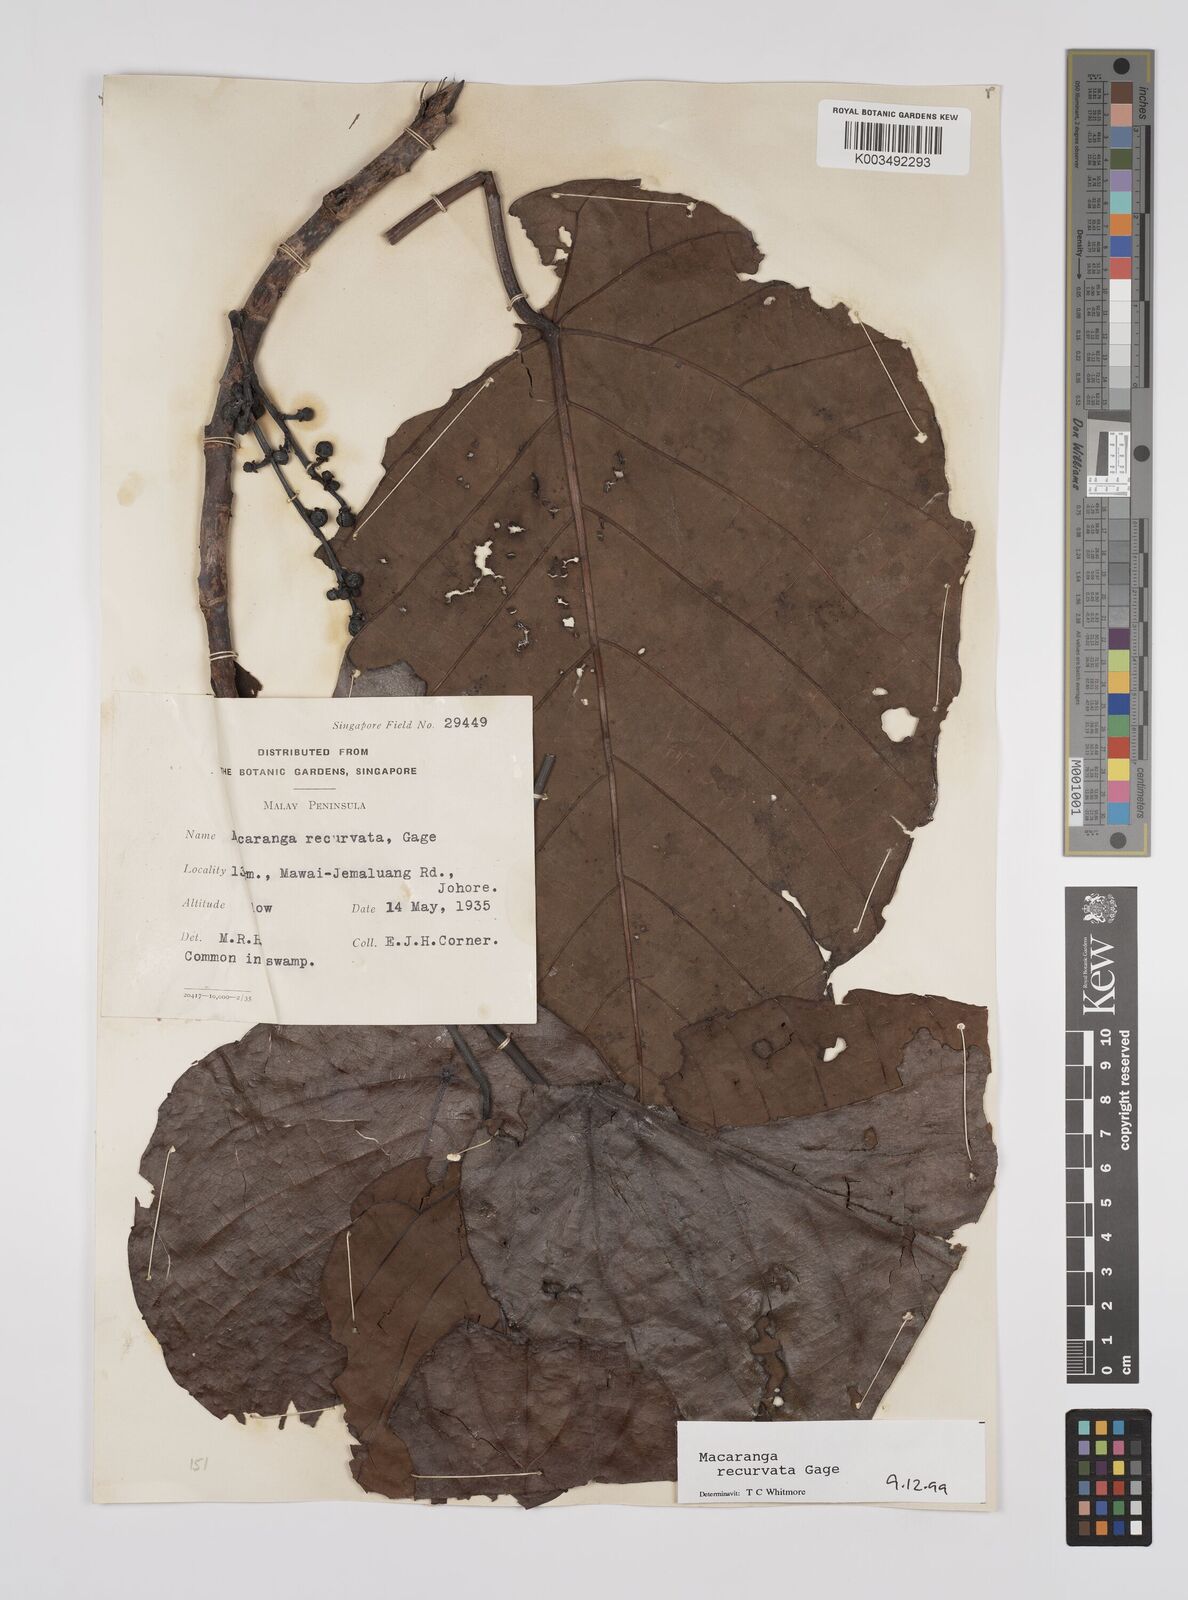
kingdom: Plantae
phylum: Tracheophyta
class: Magnoliopsida
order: Malpighiales
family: Euphorbiaceae
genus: Macaranga
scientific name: Macaranga recurvata
